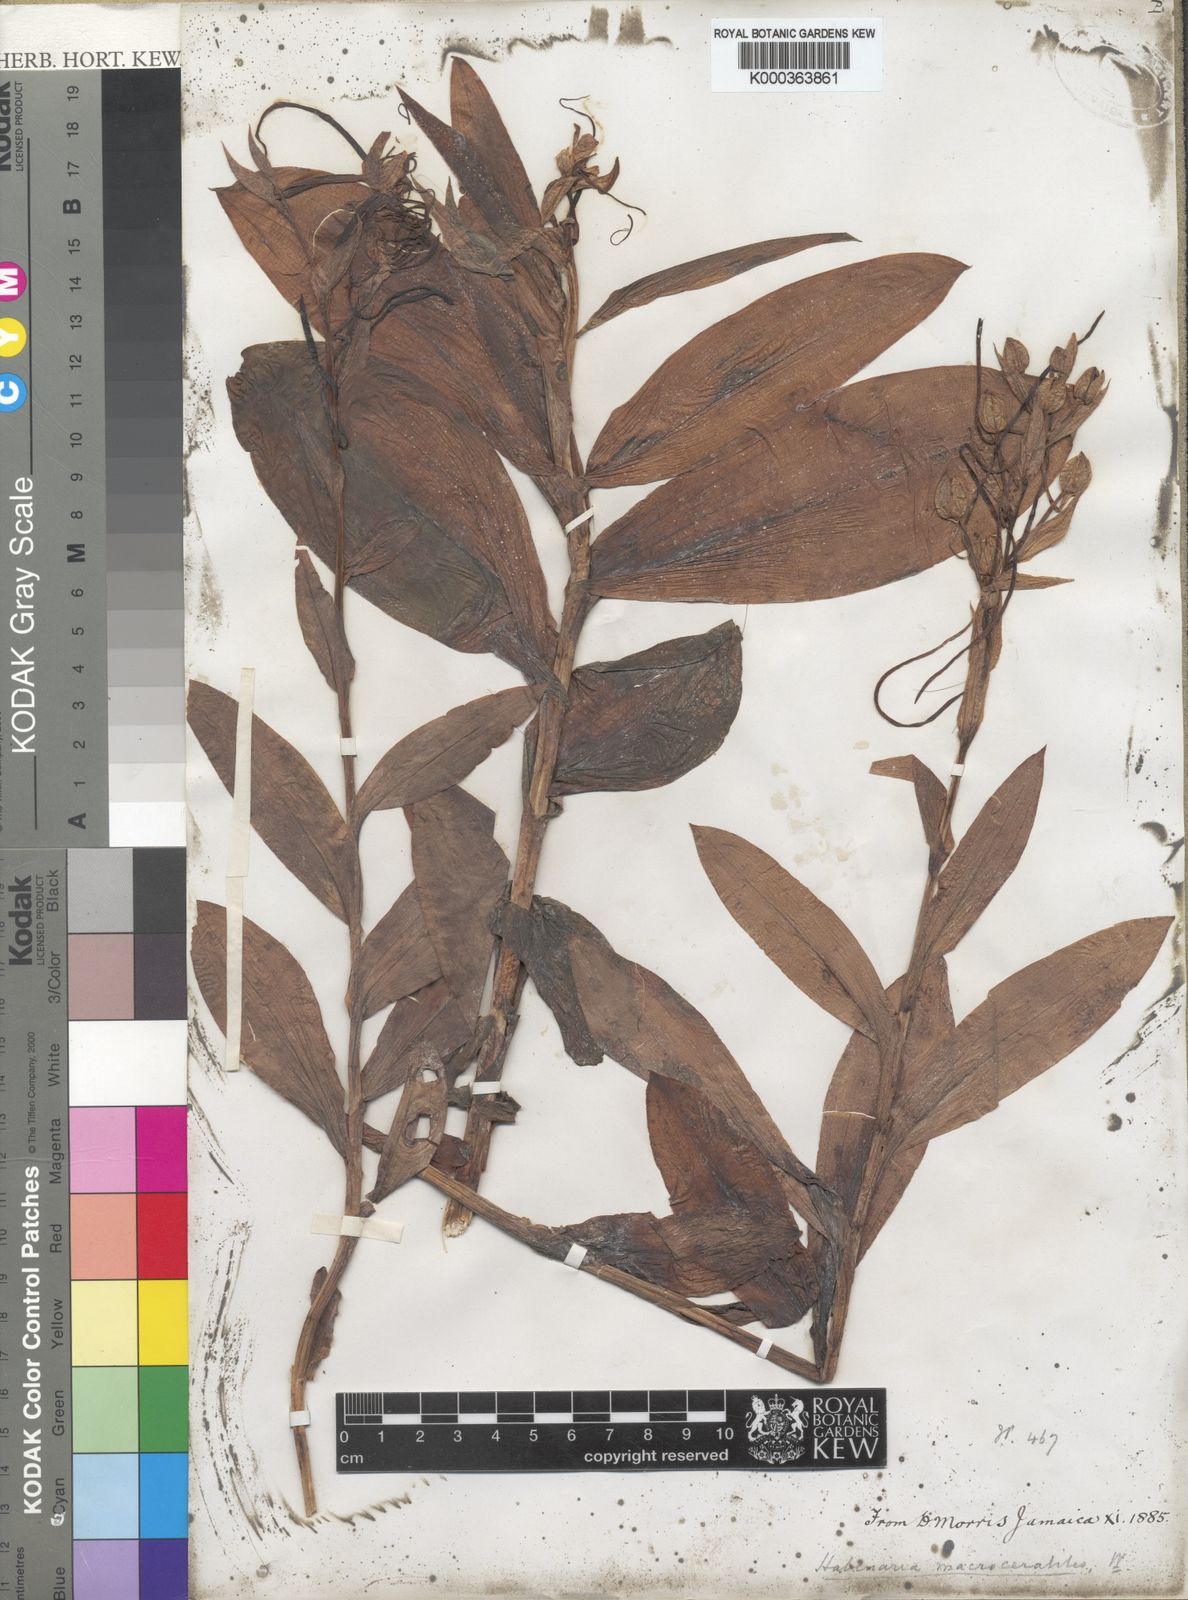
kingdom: Plantae
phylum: Tracheophyta
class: Liliopsida
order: Asparagales
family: Orchidaceae
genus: Habenaria
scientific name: Habenaria
